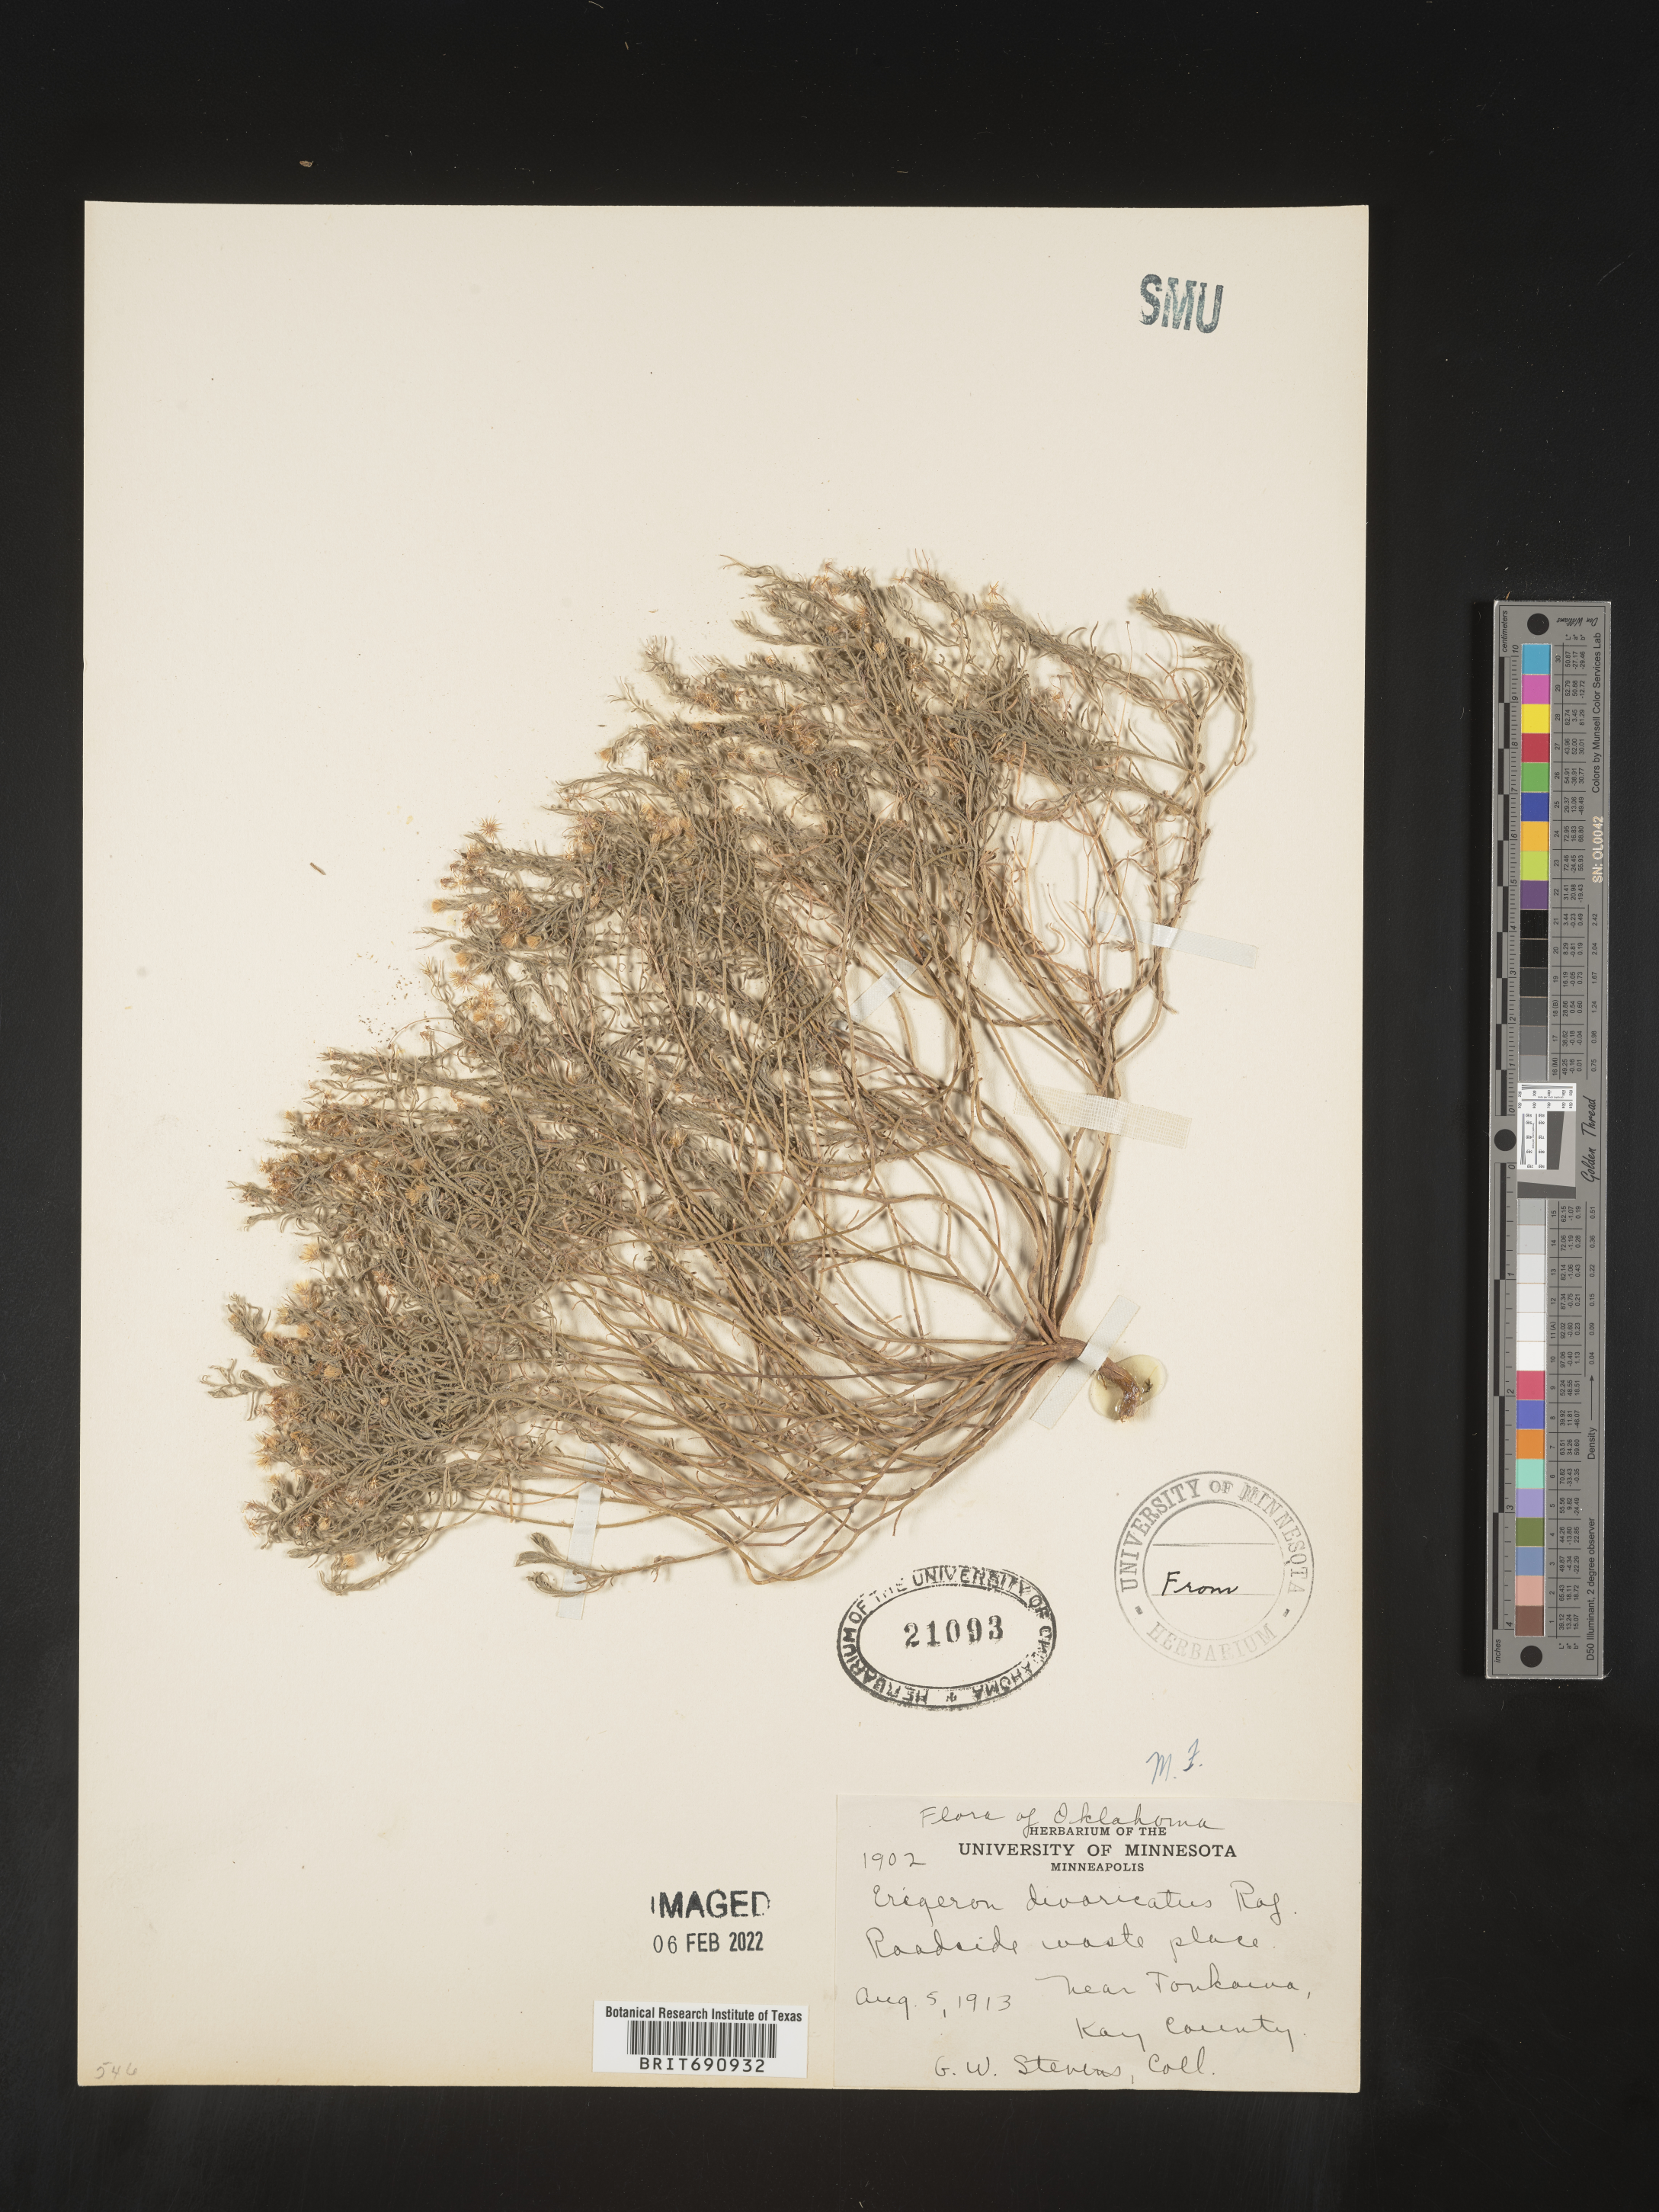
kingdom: Plantae
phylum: Tracheophyta
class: Magnoliopsida
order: Asterales
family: Asteraceae
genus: Erigeron
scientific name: Erigeron divaricatus
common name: Dwarf conyza
